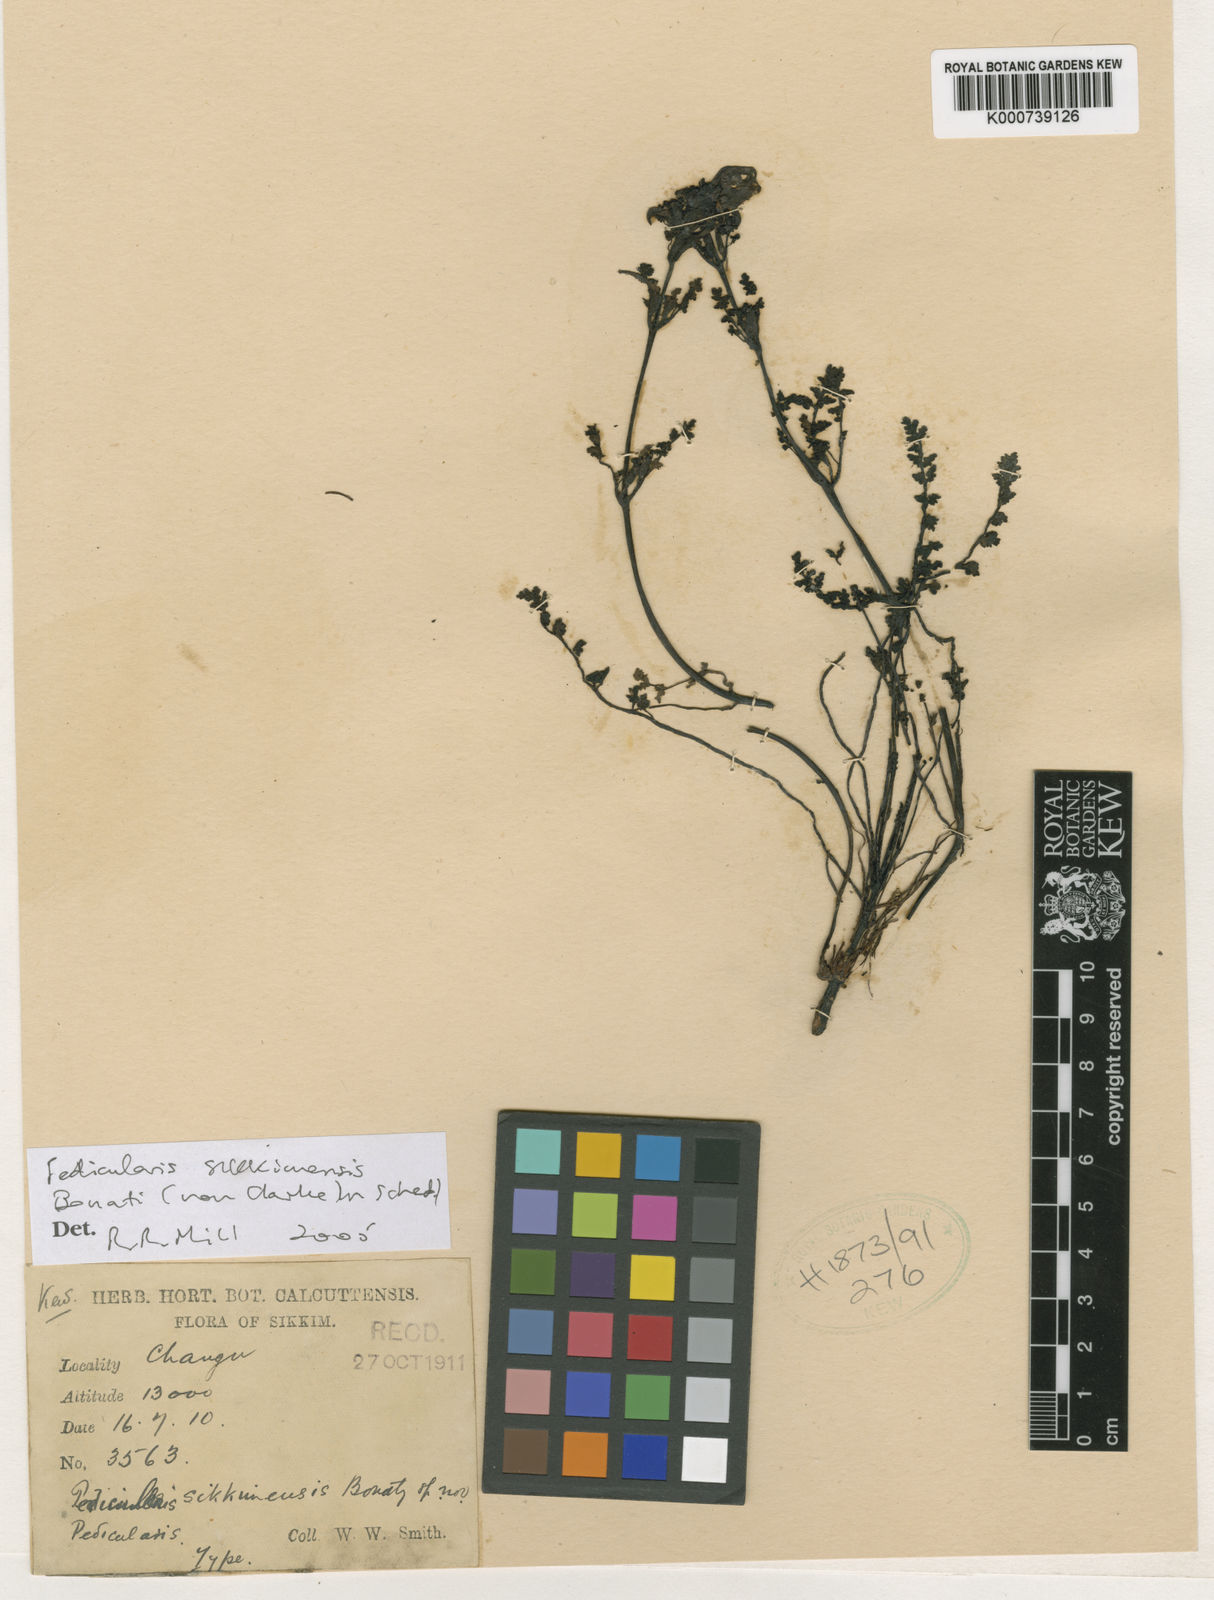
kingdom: Plantae
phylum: Tracheophyta
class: Magnoliopsida
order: Lamiales
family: Orobanchaceae
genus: Pedicularis
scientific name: Pedicularis sikkimensis
